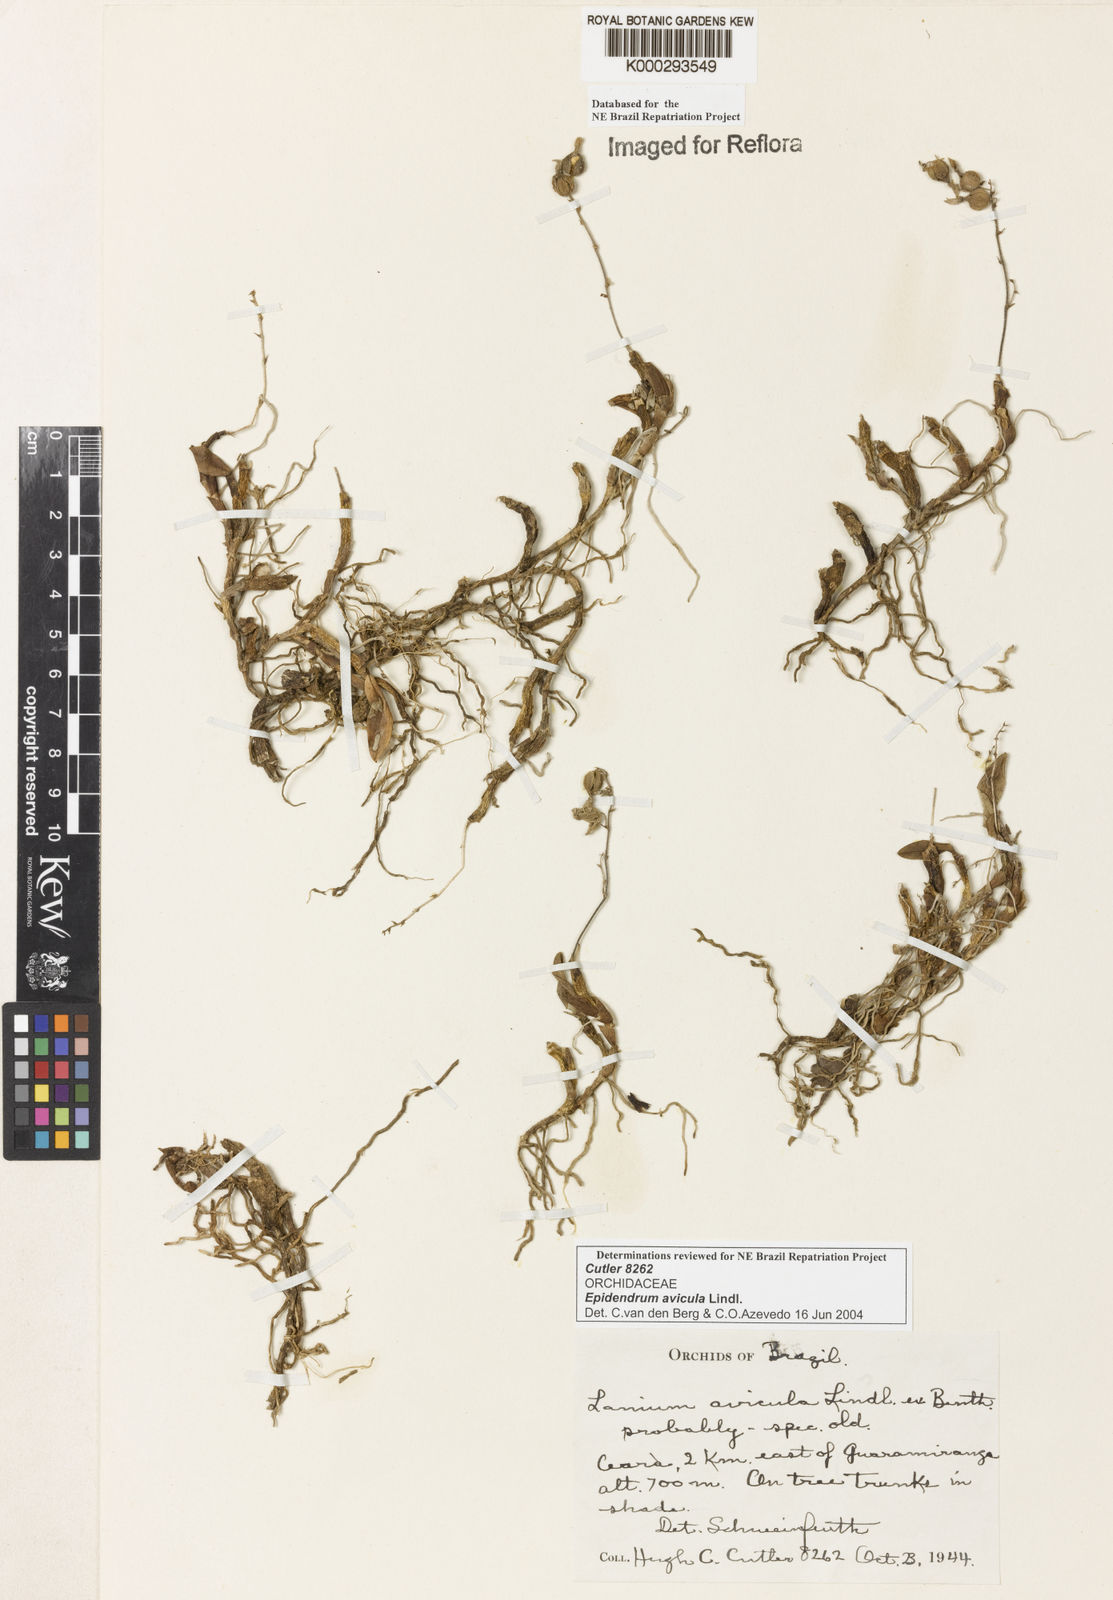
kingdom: Plantae
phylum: Tracheophyta
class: Liliopsida
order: Asparagales
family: Orchidaceae
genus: Epidendrum
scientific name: Epidendrum avicula
